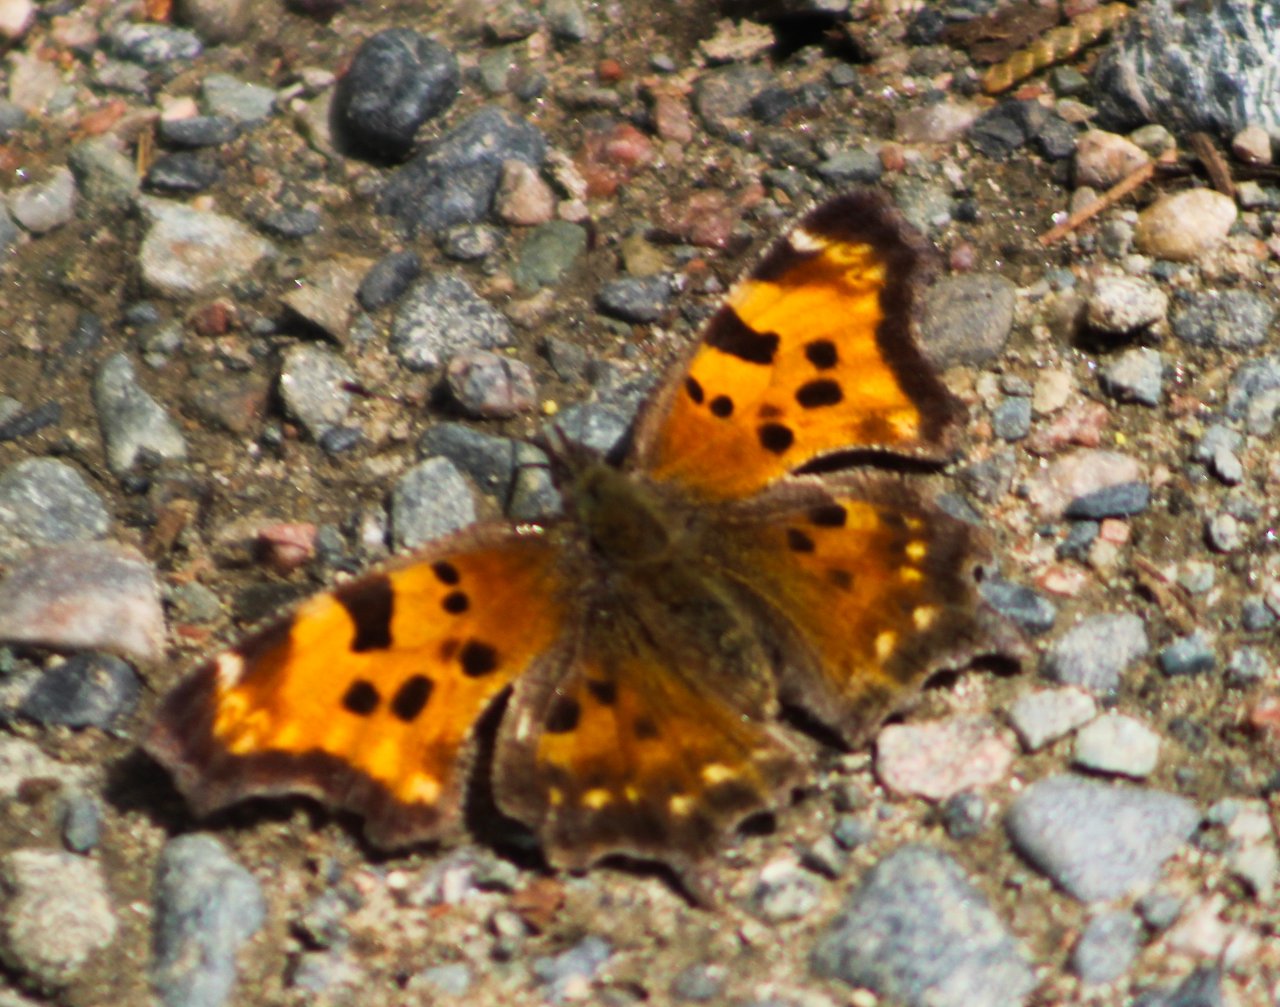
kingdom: Animalia
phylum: Arthropoda
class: Insecta
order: Lepidoptera
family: Nymphalidae
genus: Polygonia
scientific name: Polygonia faunus
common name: Green Comma
